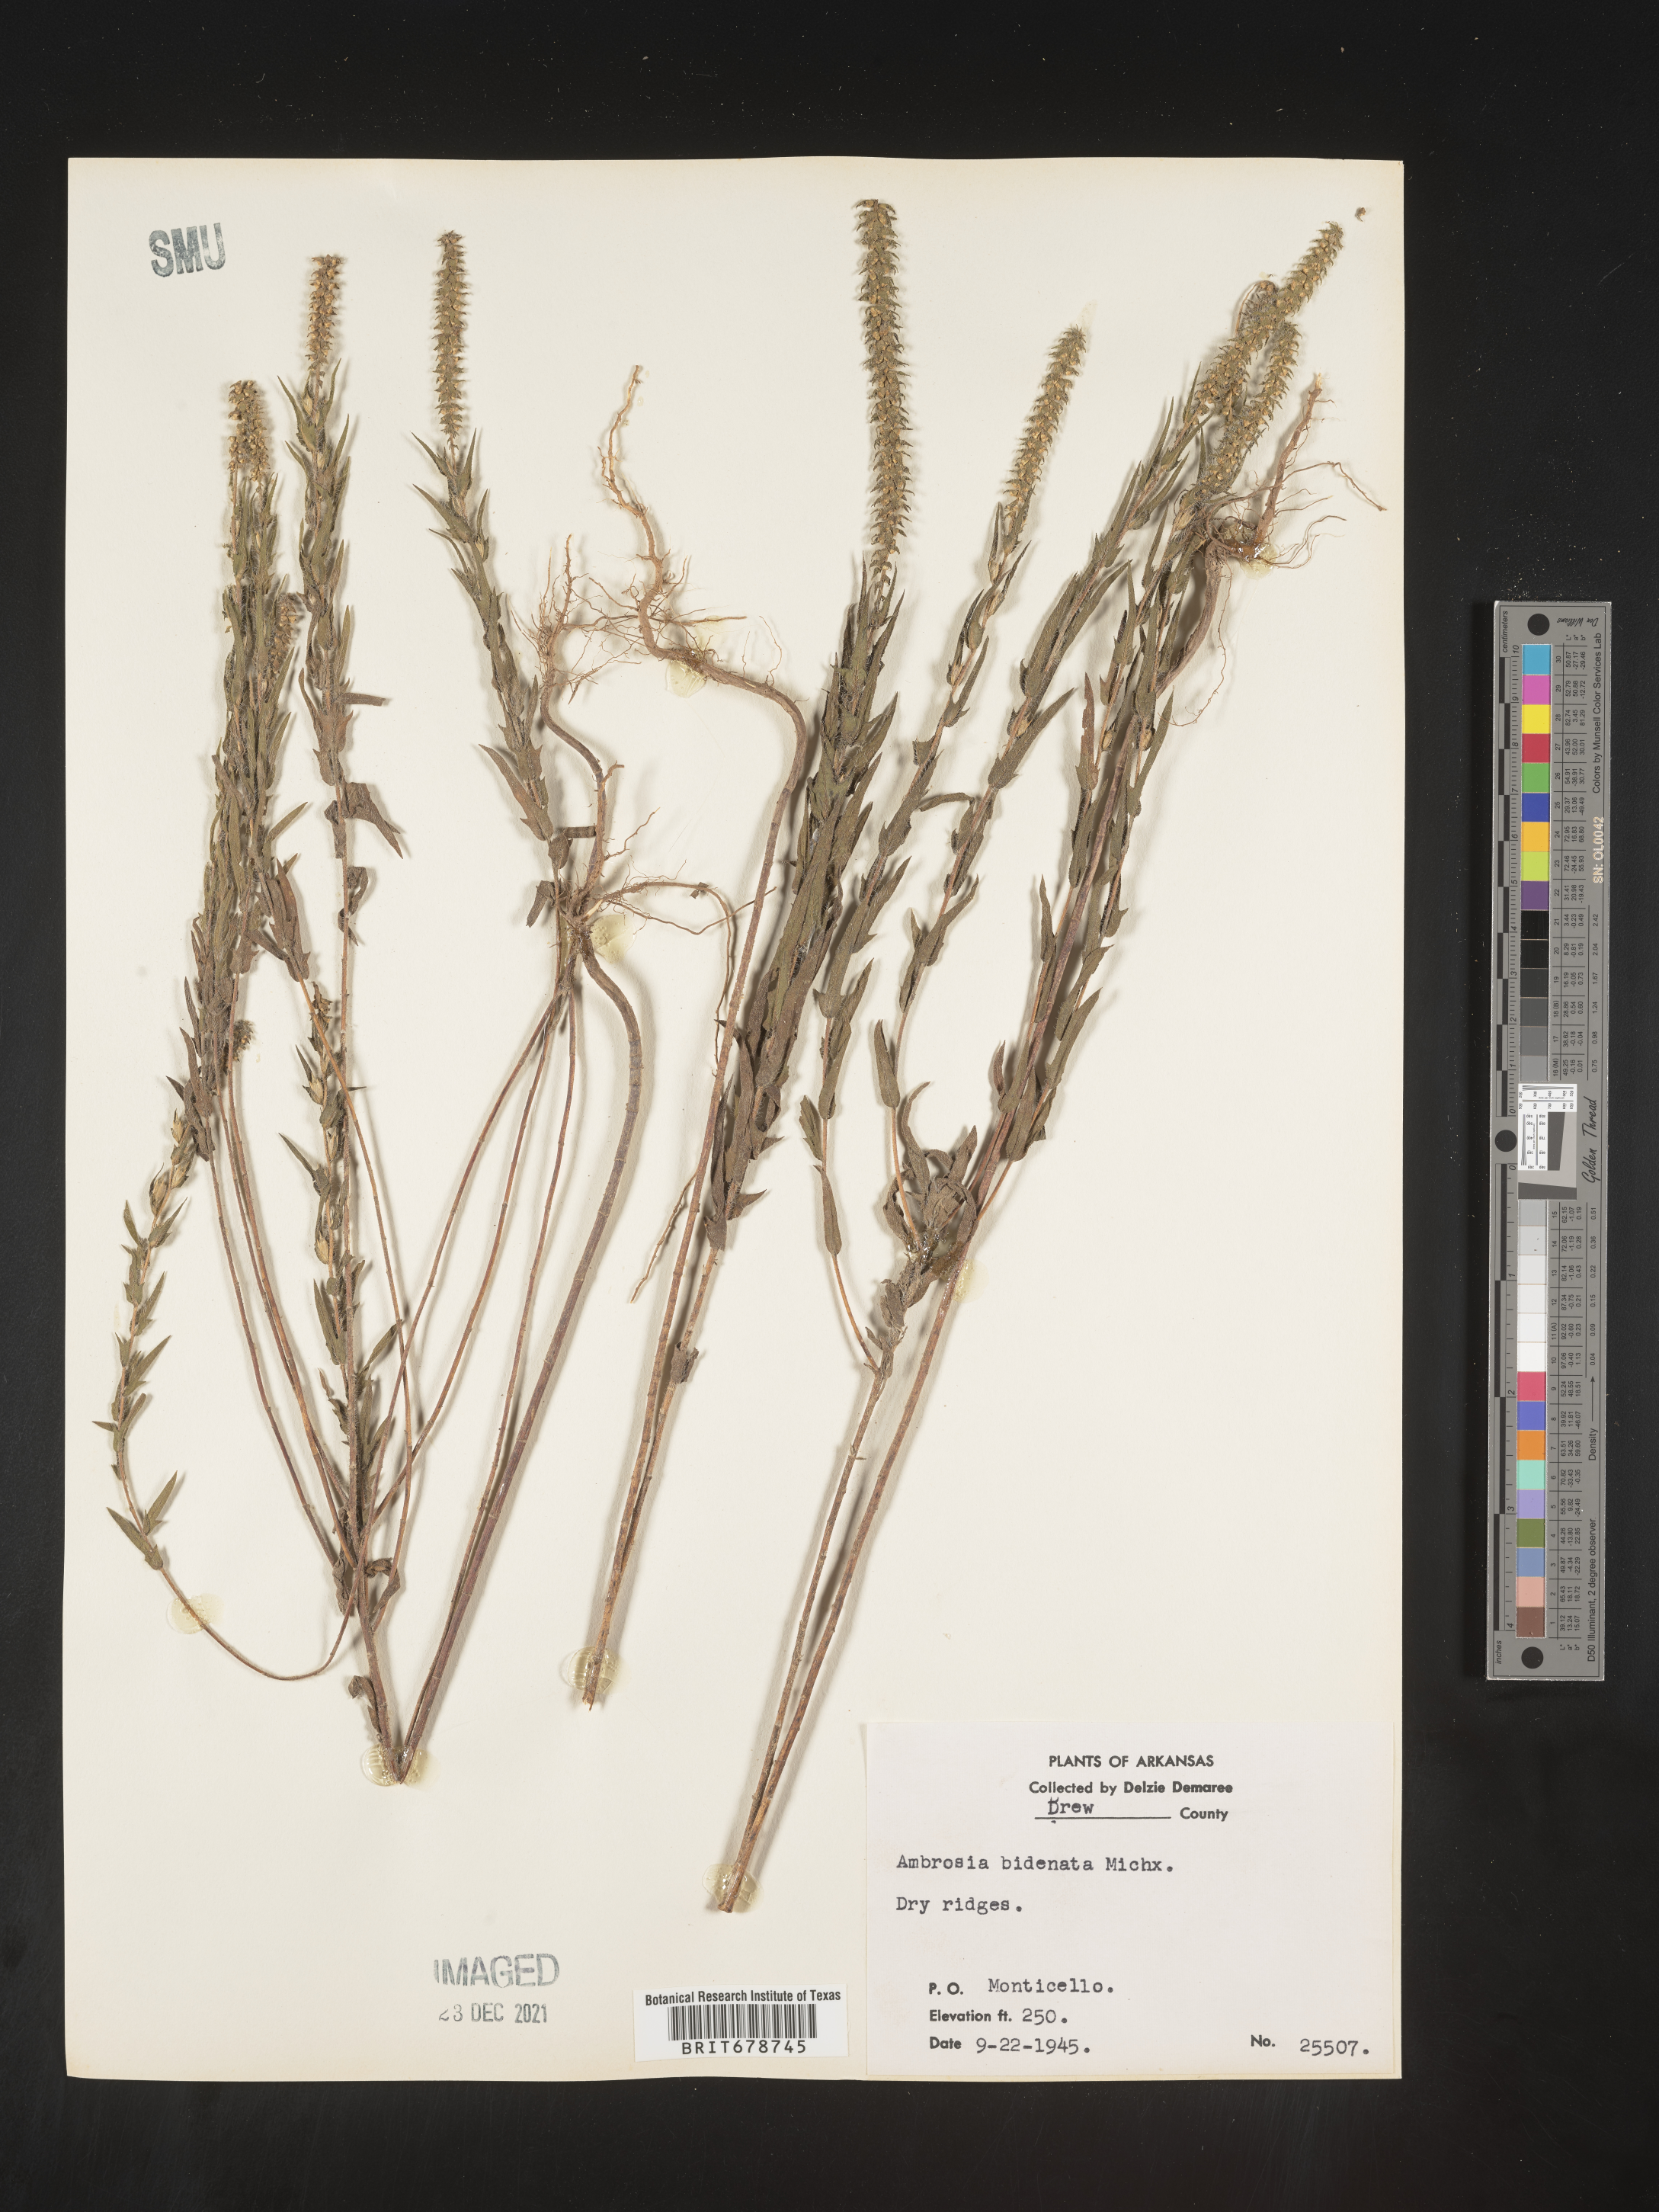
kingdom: Plantae
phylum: Tracheophyta
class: Magnoliopsida
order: Asterales
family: Asteraceae
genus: Ambrosia
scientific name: Ambrosia bidentata
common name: Southern ragweed
